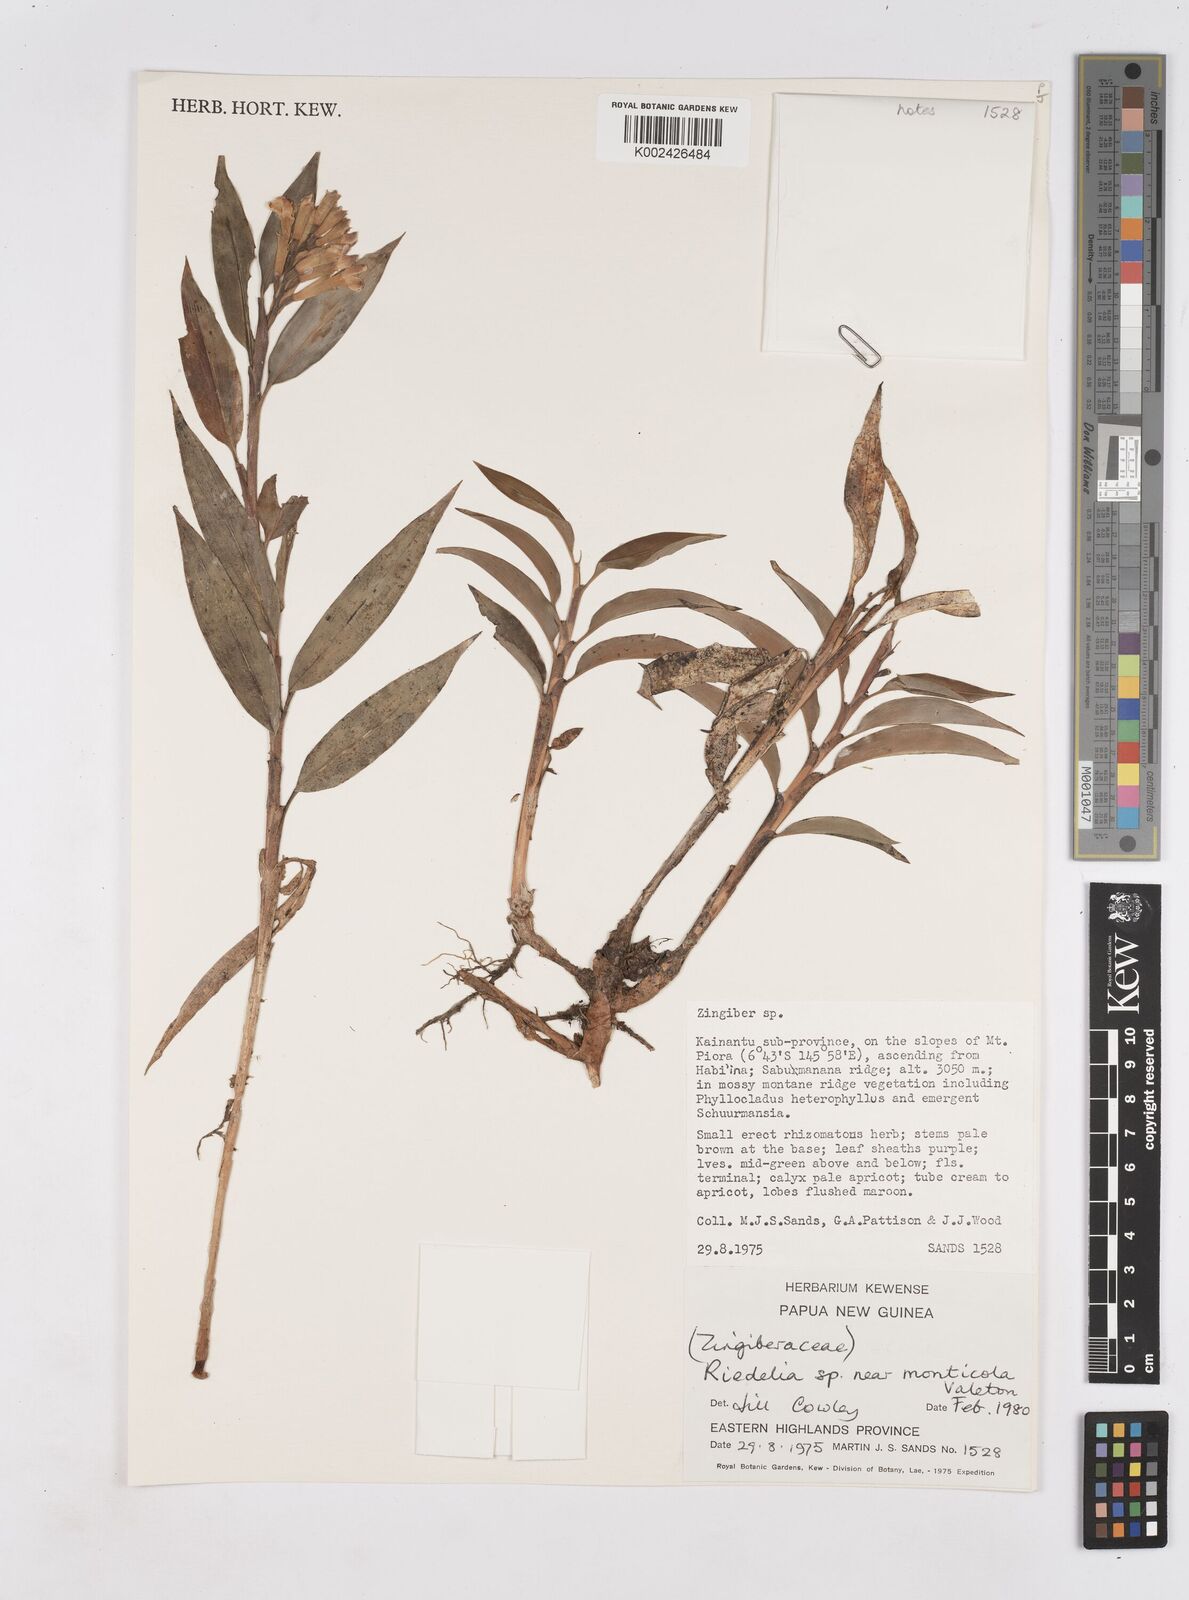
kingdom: Plantae
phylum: Tracheophyta
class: Liliopsida
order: Zingiberales
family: Zingiberaceae
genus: Riedelia
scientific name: Riedelia monticola
